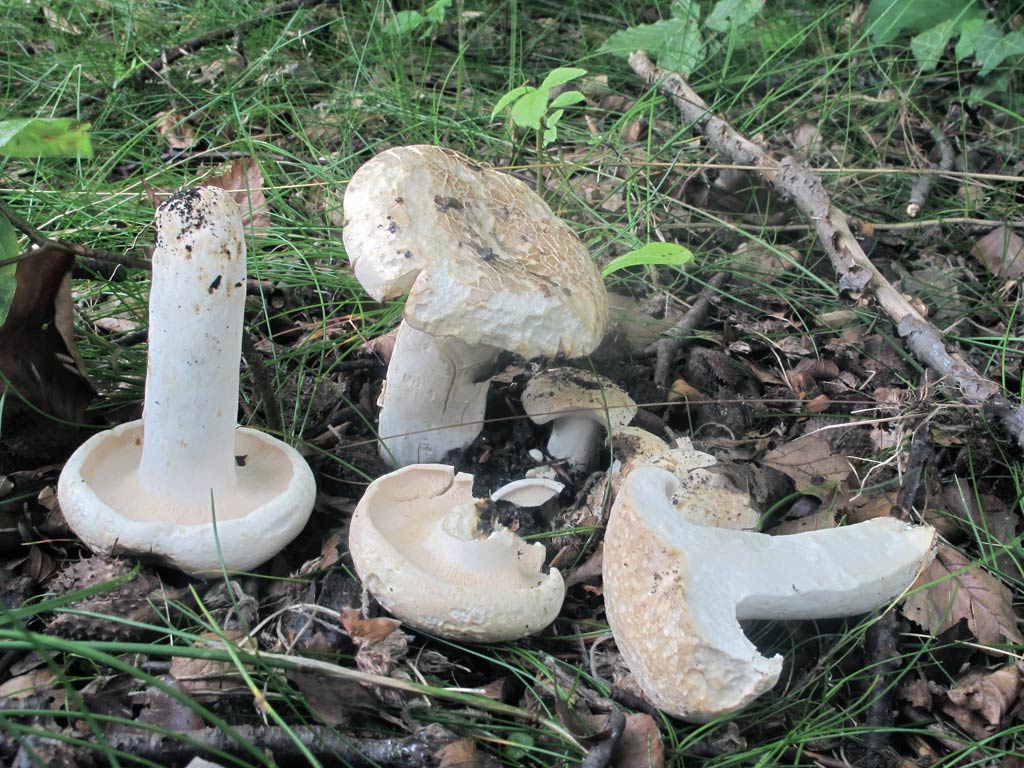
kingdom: Fungi
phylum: Basidiomycota
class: Agaricomycetes
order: Russulales
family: Russulaceae
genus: Lactifluus
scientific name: Lactifluus glaucescens
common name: grønplettet mælkehat
